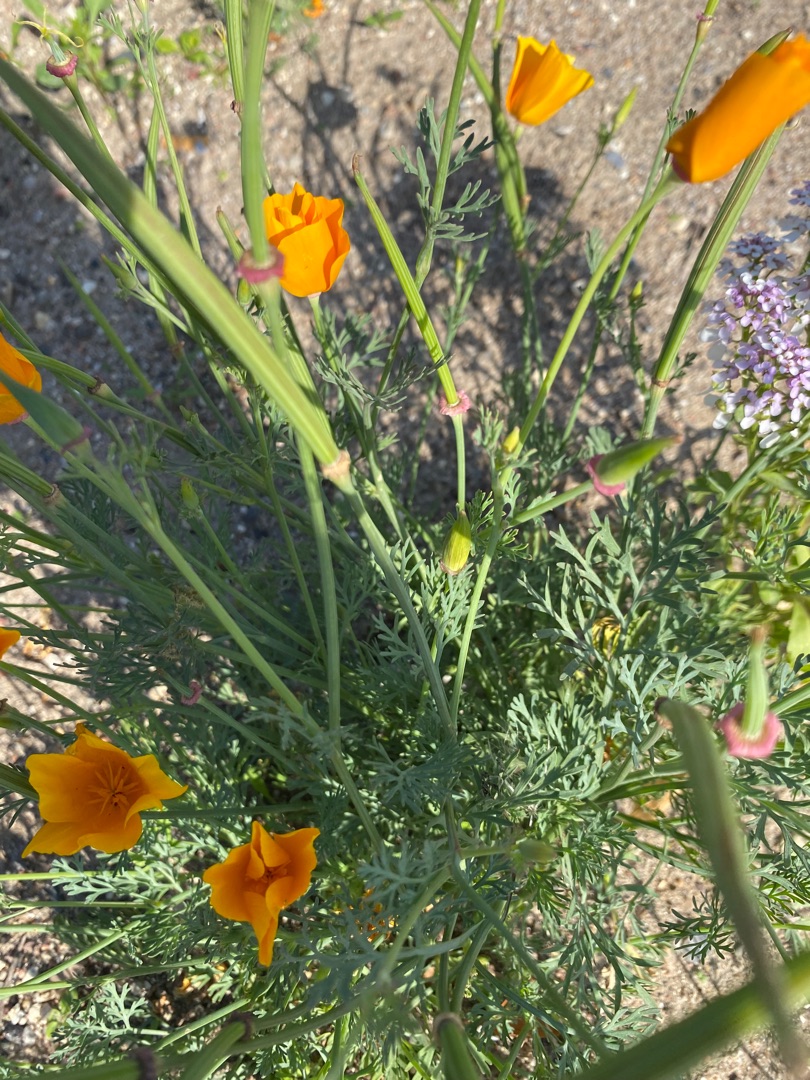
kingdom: Plantae
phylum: Tracheophyta
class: Magnoliopsida
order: Ranunculales
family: Papaveraceae
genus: Eschscholzia
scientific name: Eschscholzia californica
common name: Guldvalmue
